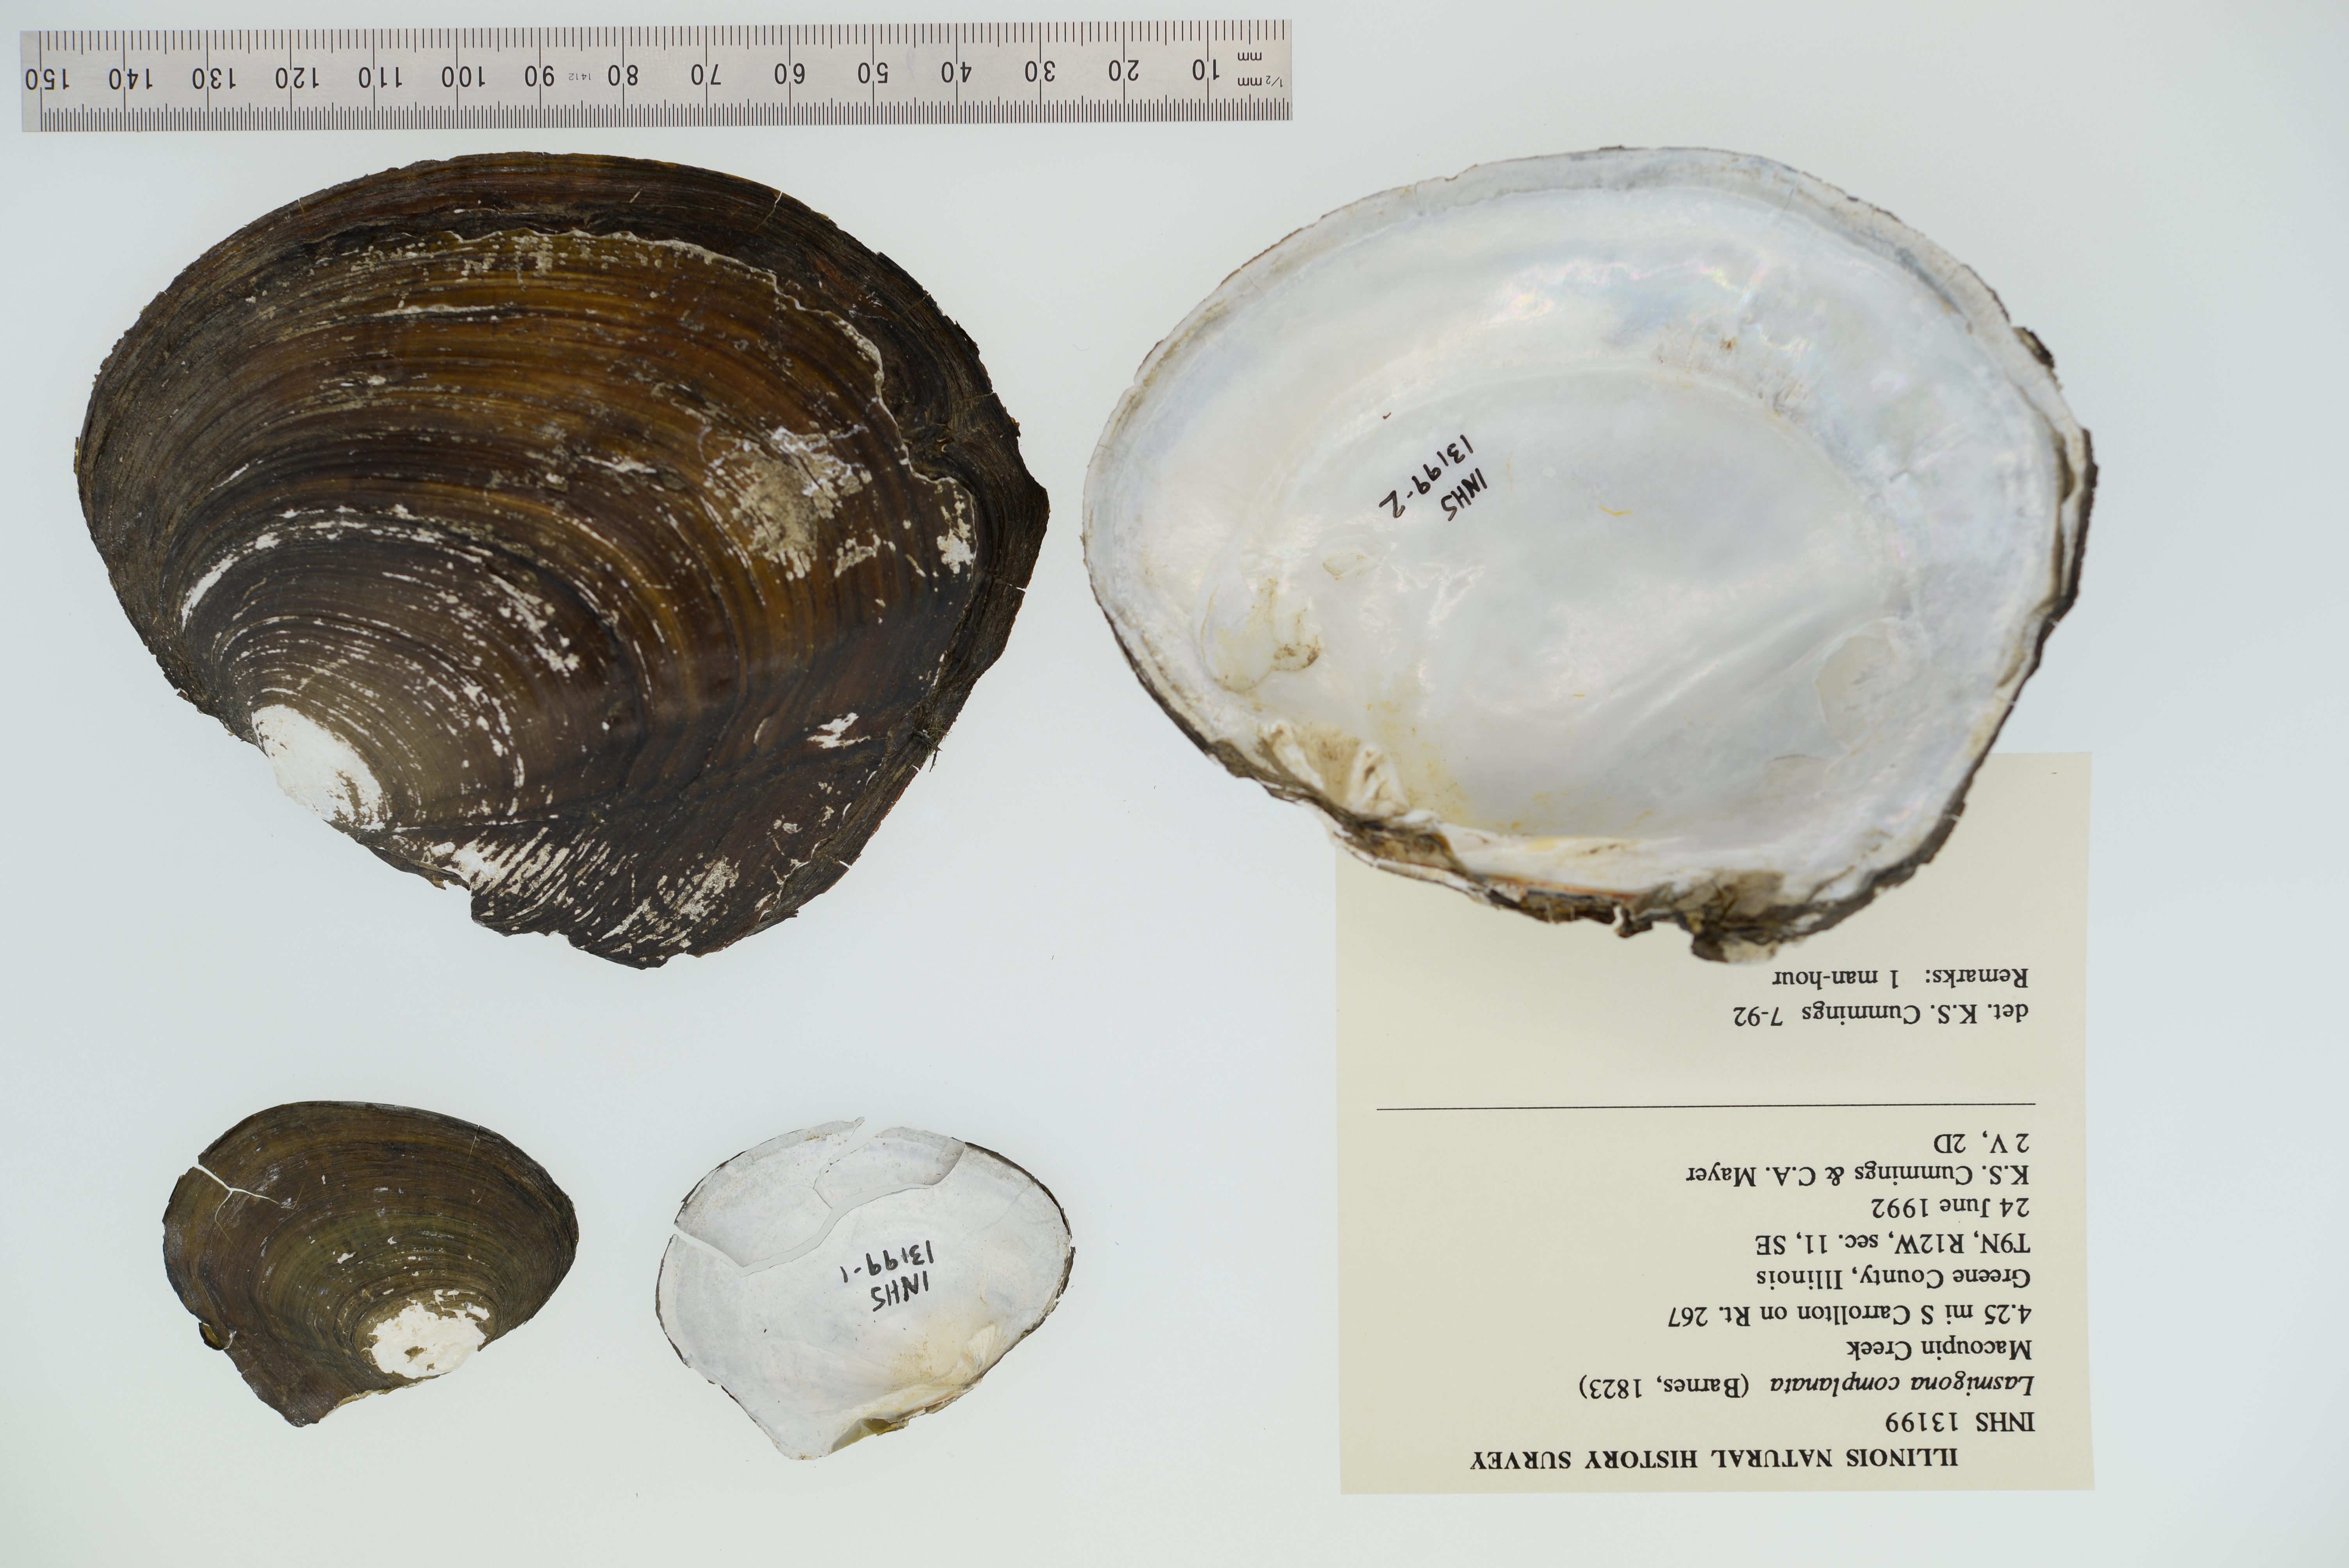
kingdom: Animalia
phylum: Mollusca
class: Bivalvia
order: Unionida
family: Unionidae
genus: Lasmigona
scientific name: Lasmigona complanata
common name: White heelsplitter
